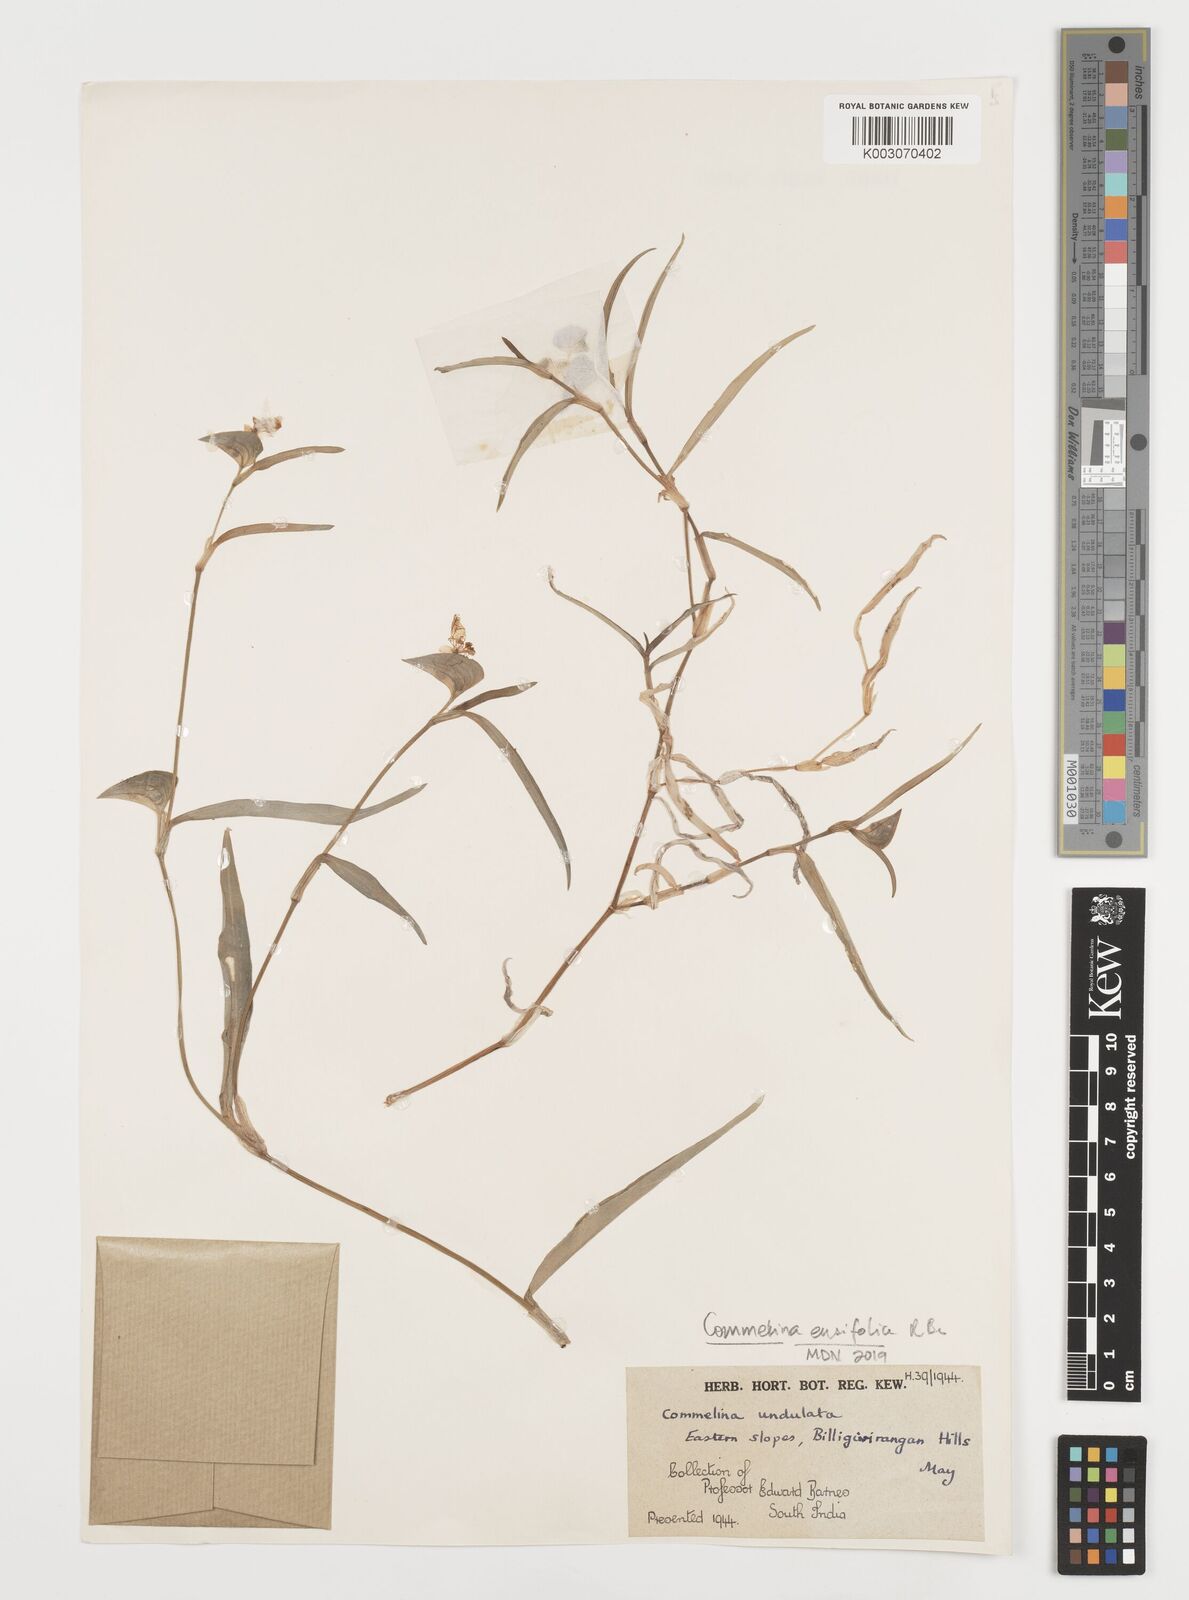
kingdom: Plantae
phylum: Tracheophyta
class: Liliopsida
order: Commelinales
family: Commelinaceae
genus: Commelina
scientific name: Commelina ensifolia
